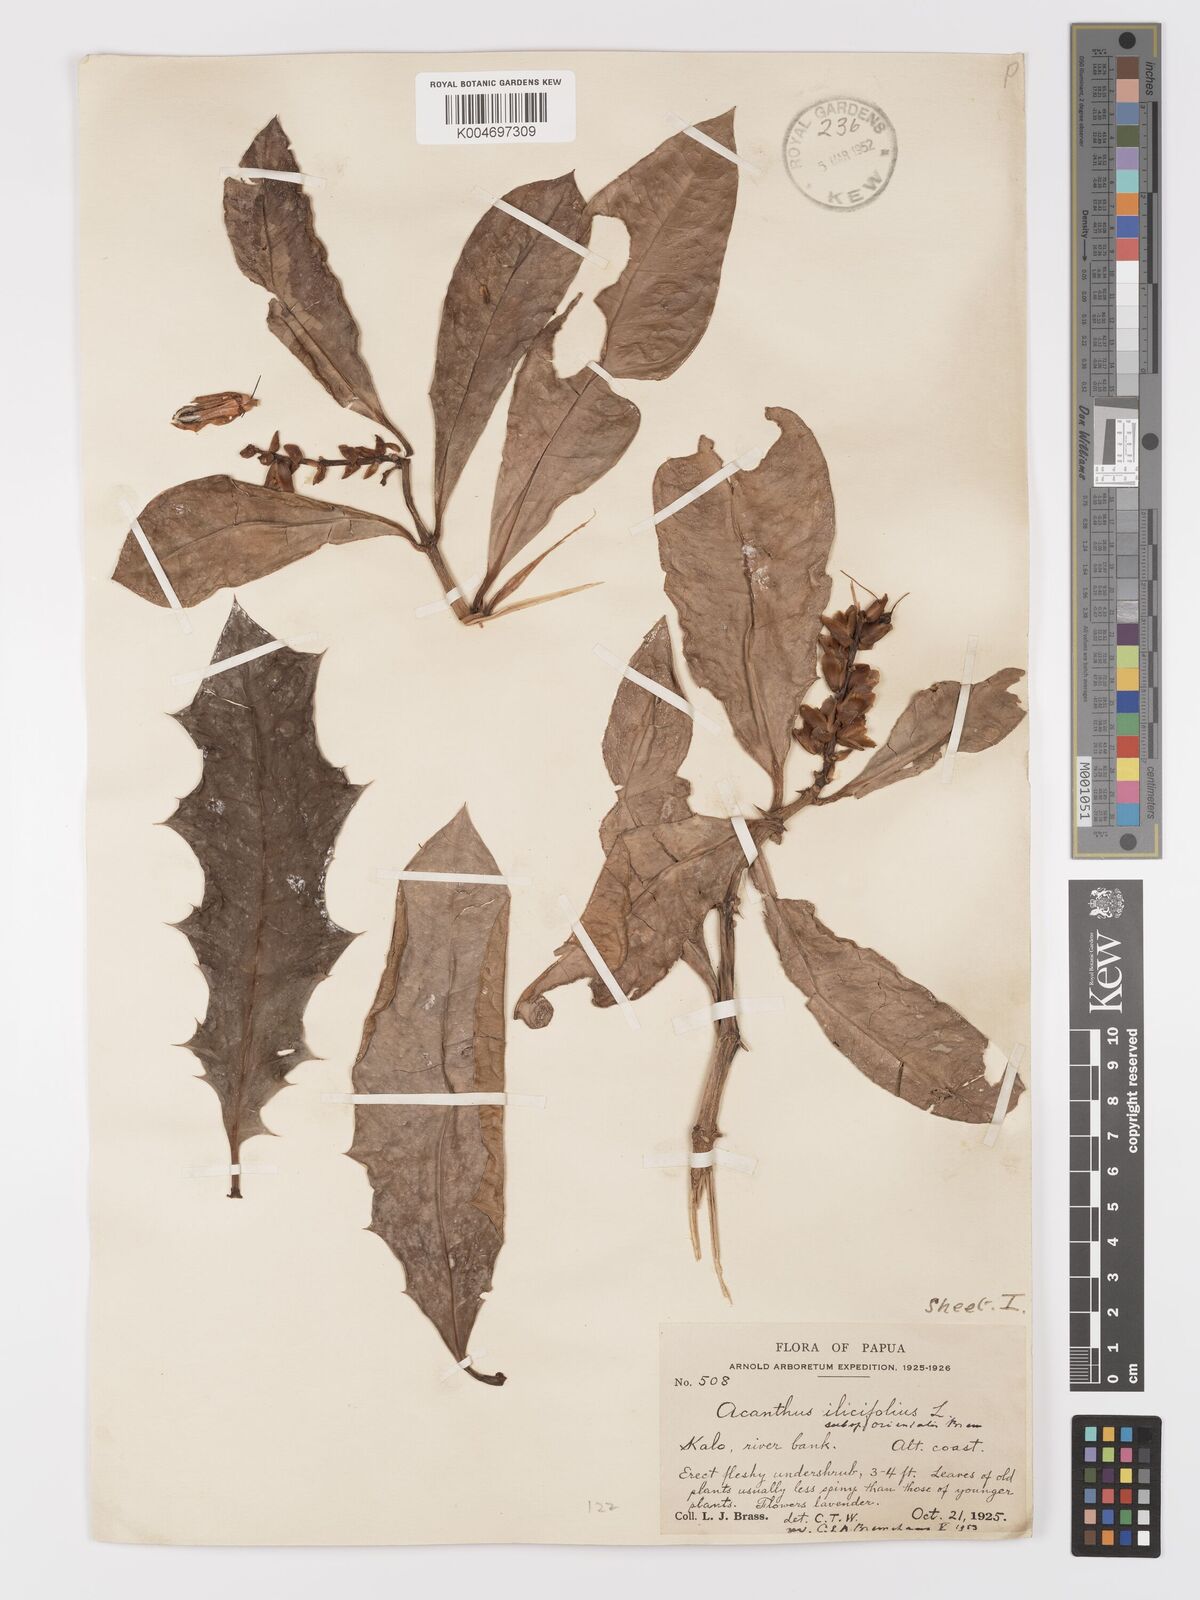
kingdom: Plantae
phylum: Tracheophyta
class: Magnoliopsida
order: Lamiales
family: Acanthaceae
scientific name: Acanthaceae
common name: Acanthaceae
